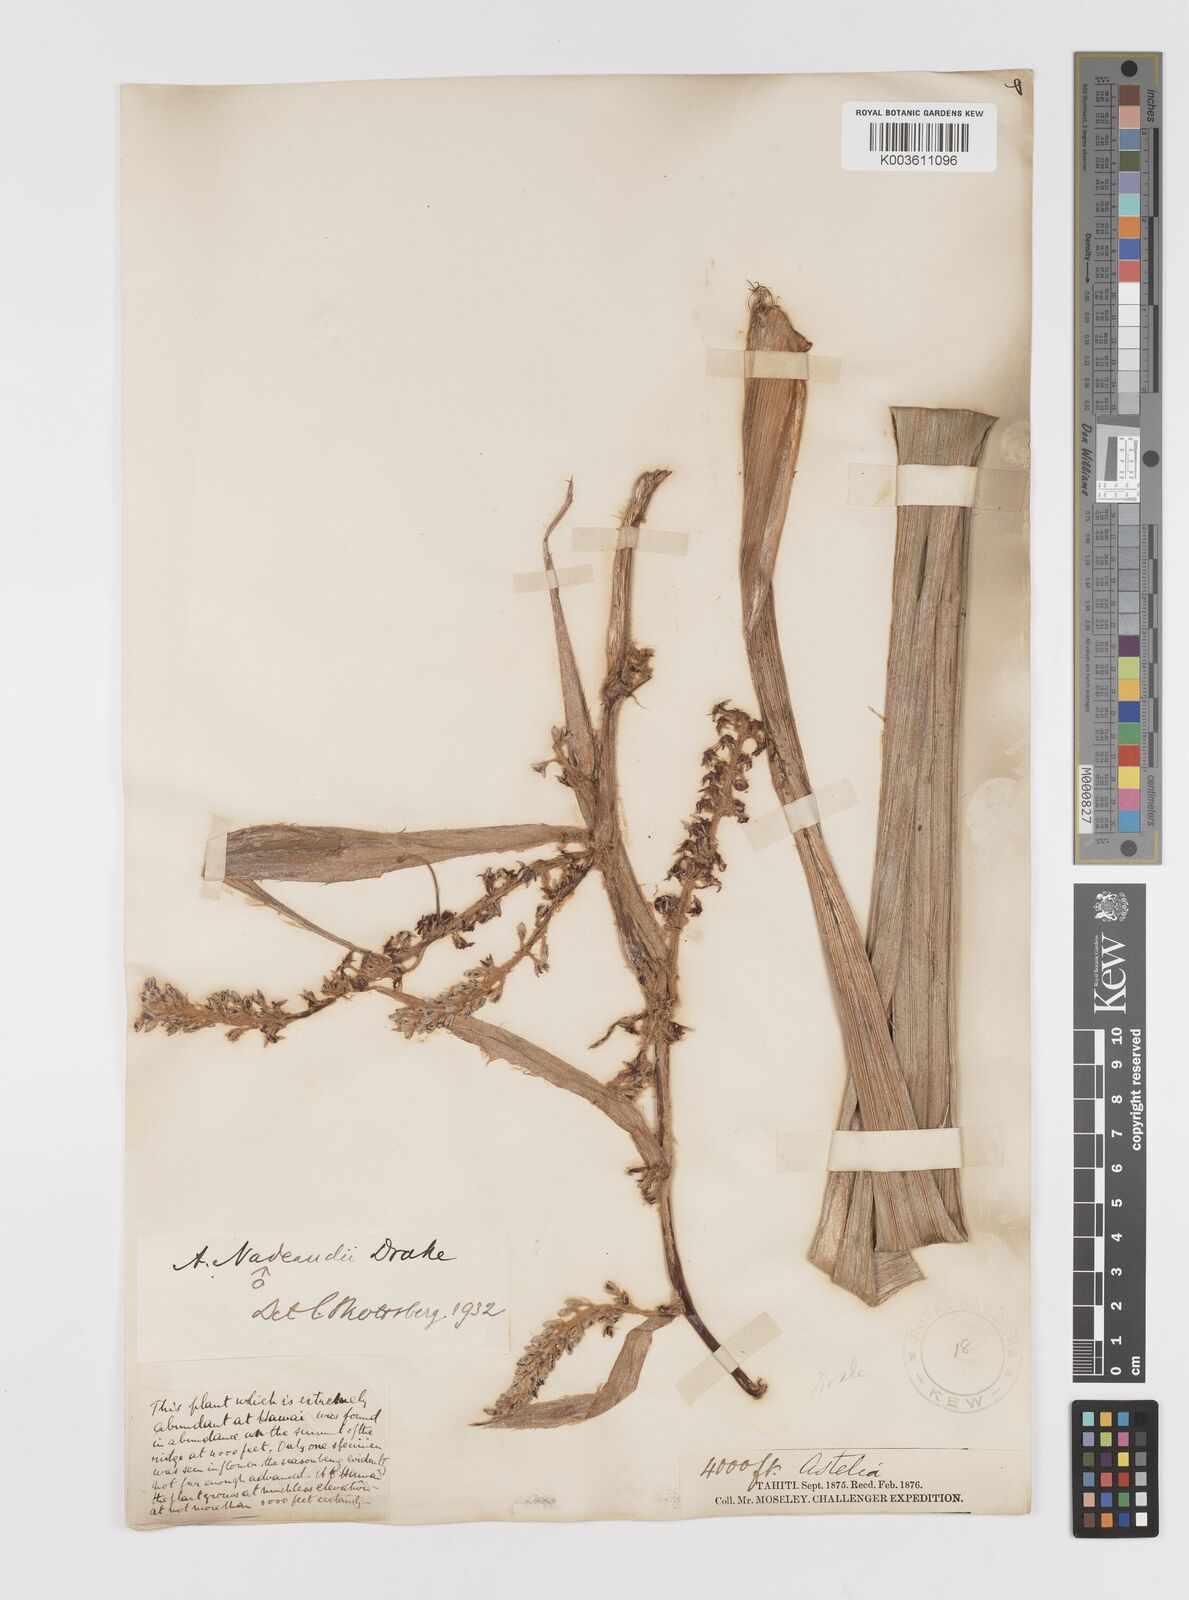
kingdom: Plantae
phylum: Tracheophyta
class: Liliopsida
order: Asparagales
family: Asteliaceae
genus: Astelia
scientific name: Astelia nadeaudii
